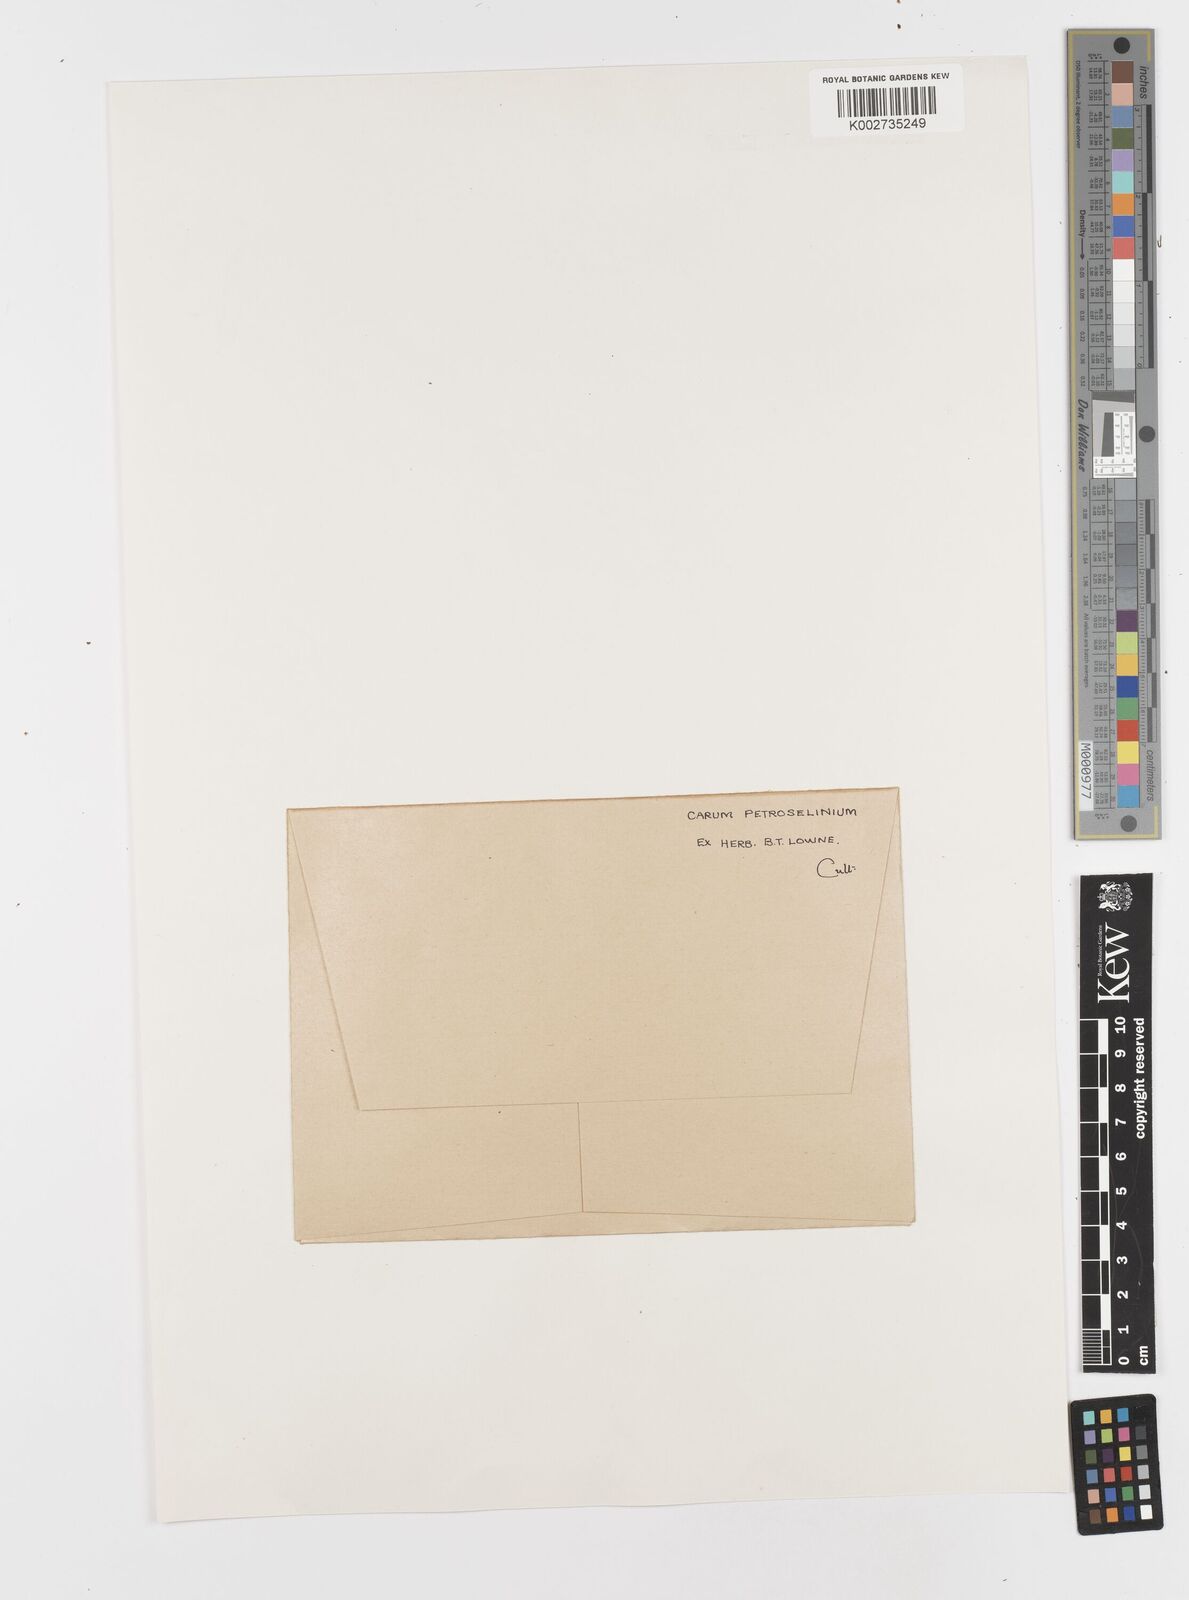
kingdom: Plantae
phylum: Tracheophyta
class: Magnoliopsida
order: Apiales
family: Apiaceae
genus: Petroselinum
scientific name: Petroselinum
